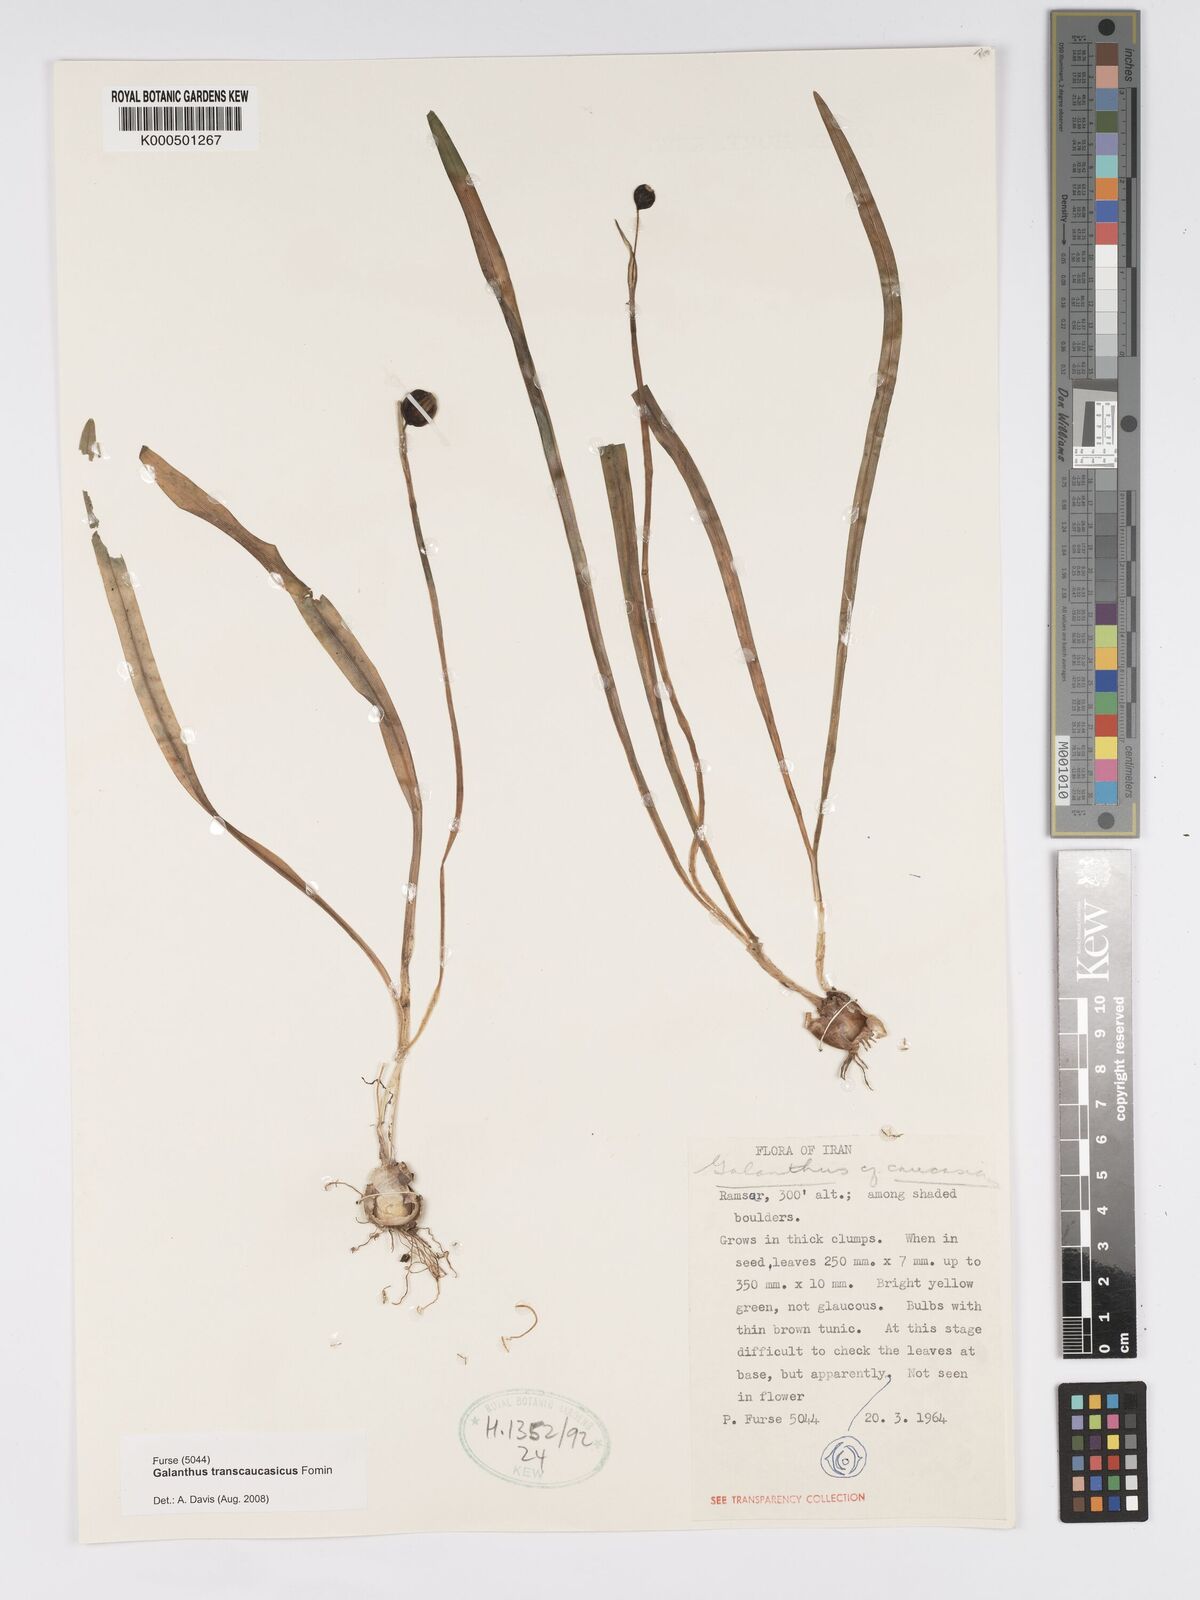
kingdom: Plantae
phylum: Tracheophyta
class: Liliopsida
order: Asparagales
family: Amaryllidaceae
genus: Galanthus
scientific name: Galanthus transcaucasicus
